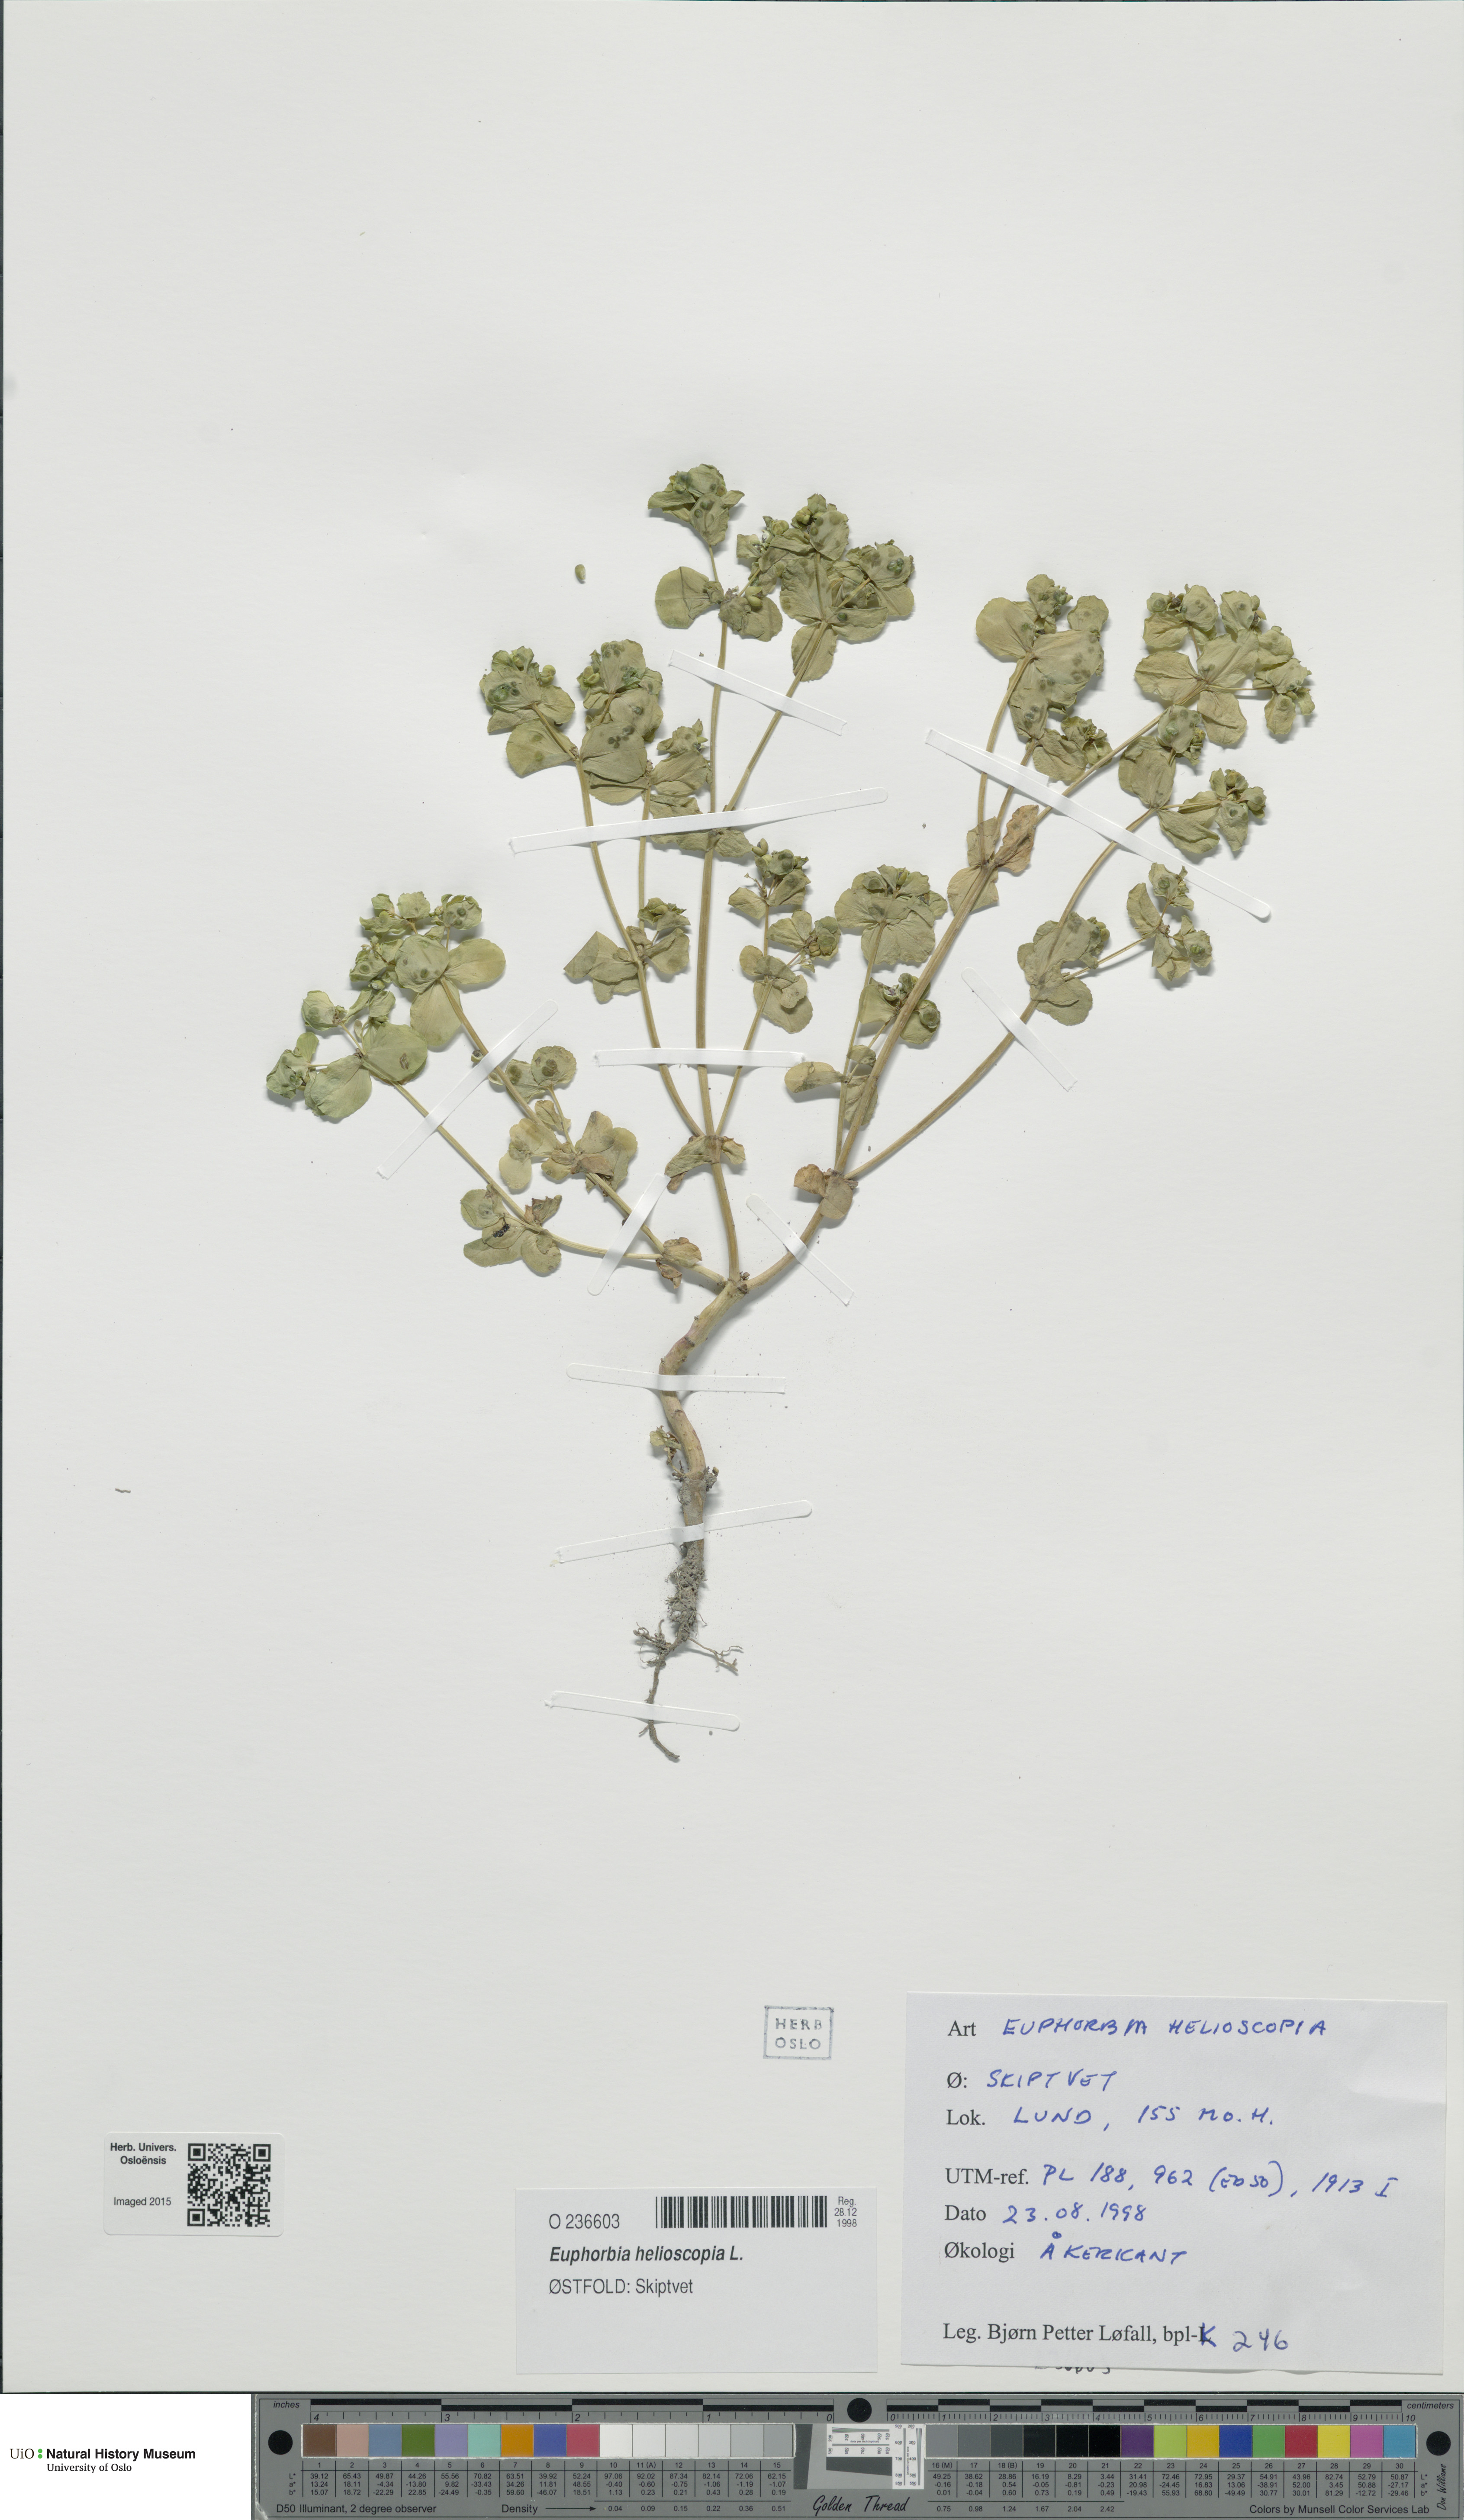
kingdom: Plantae
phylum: Tracheophyta
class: Magnoliopsida
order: Malpighiales
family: Euphorbiaceae
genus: Euphorbia
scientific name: Euphorbia helioscopia
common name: Sun spurge
